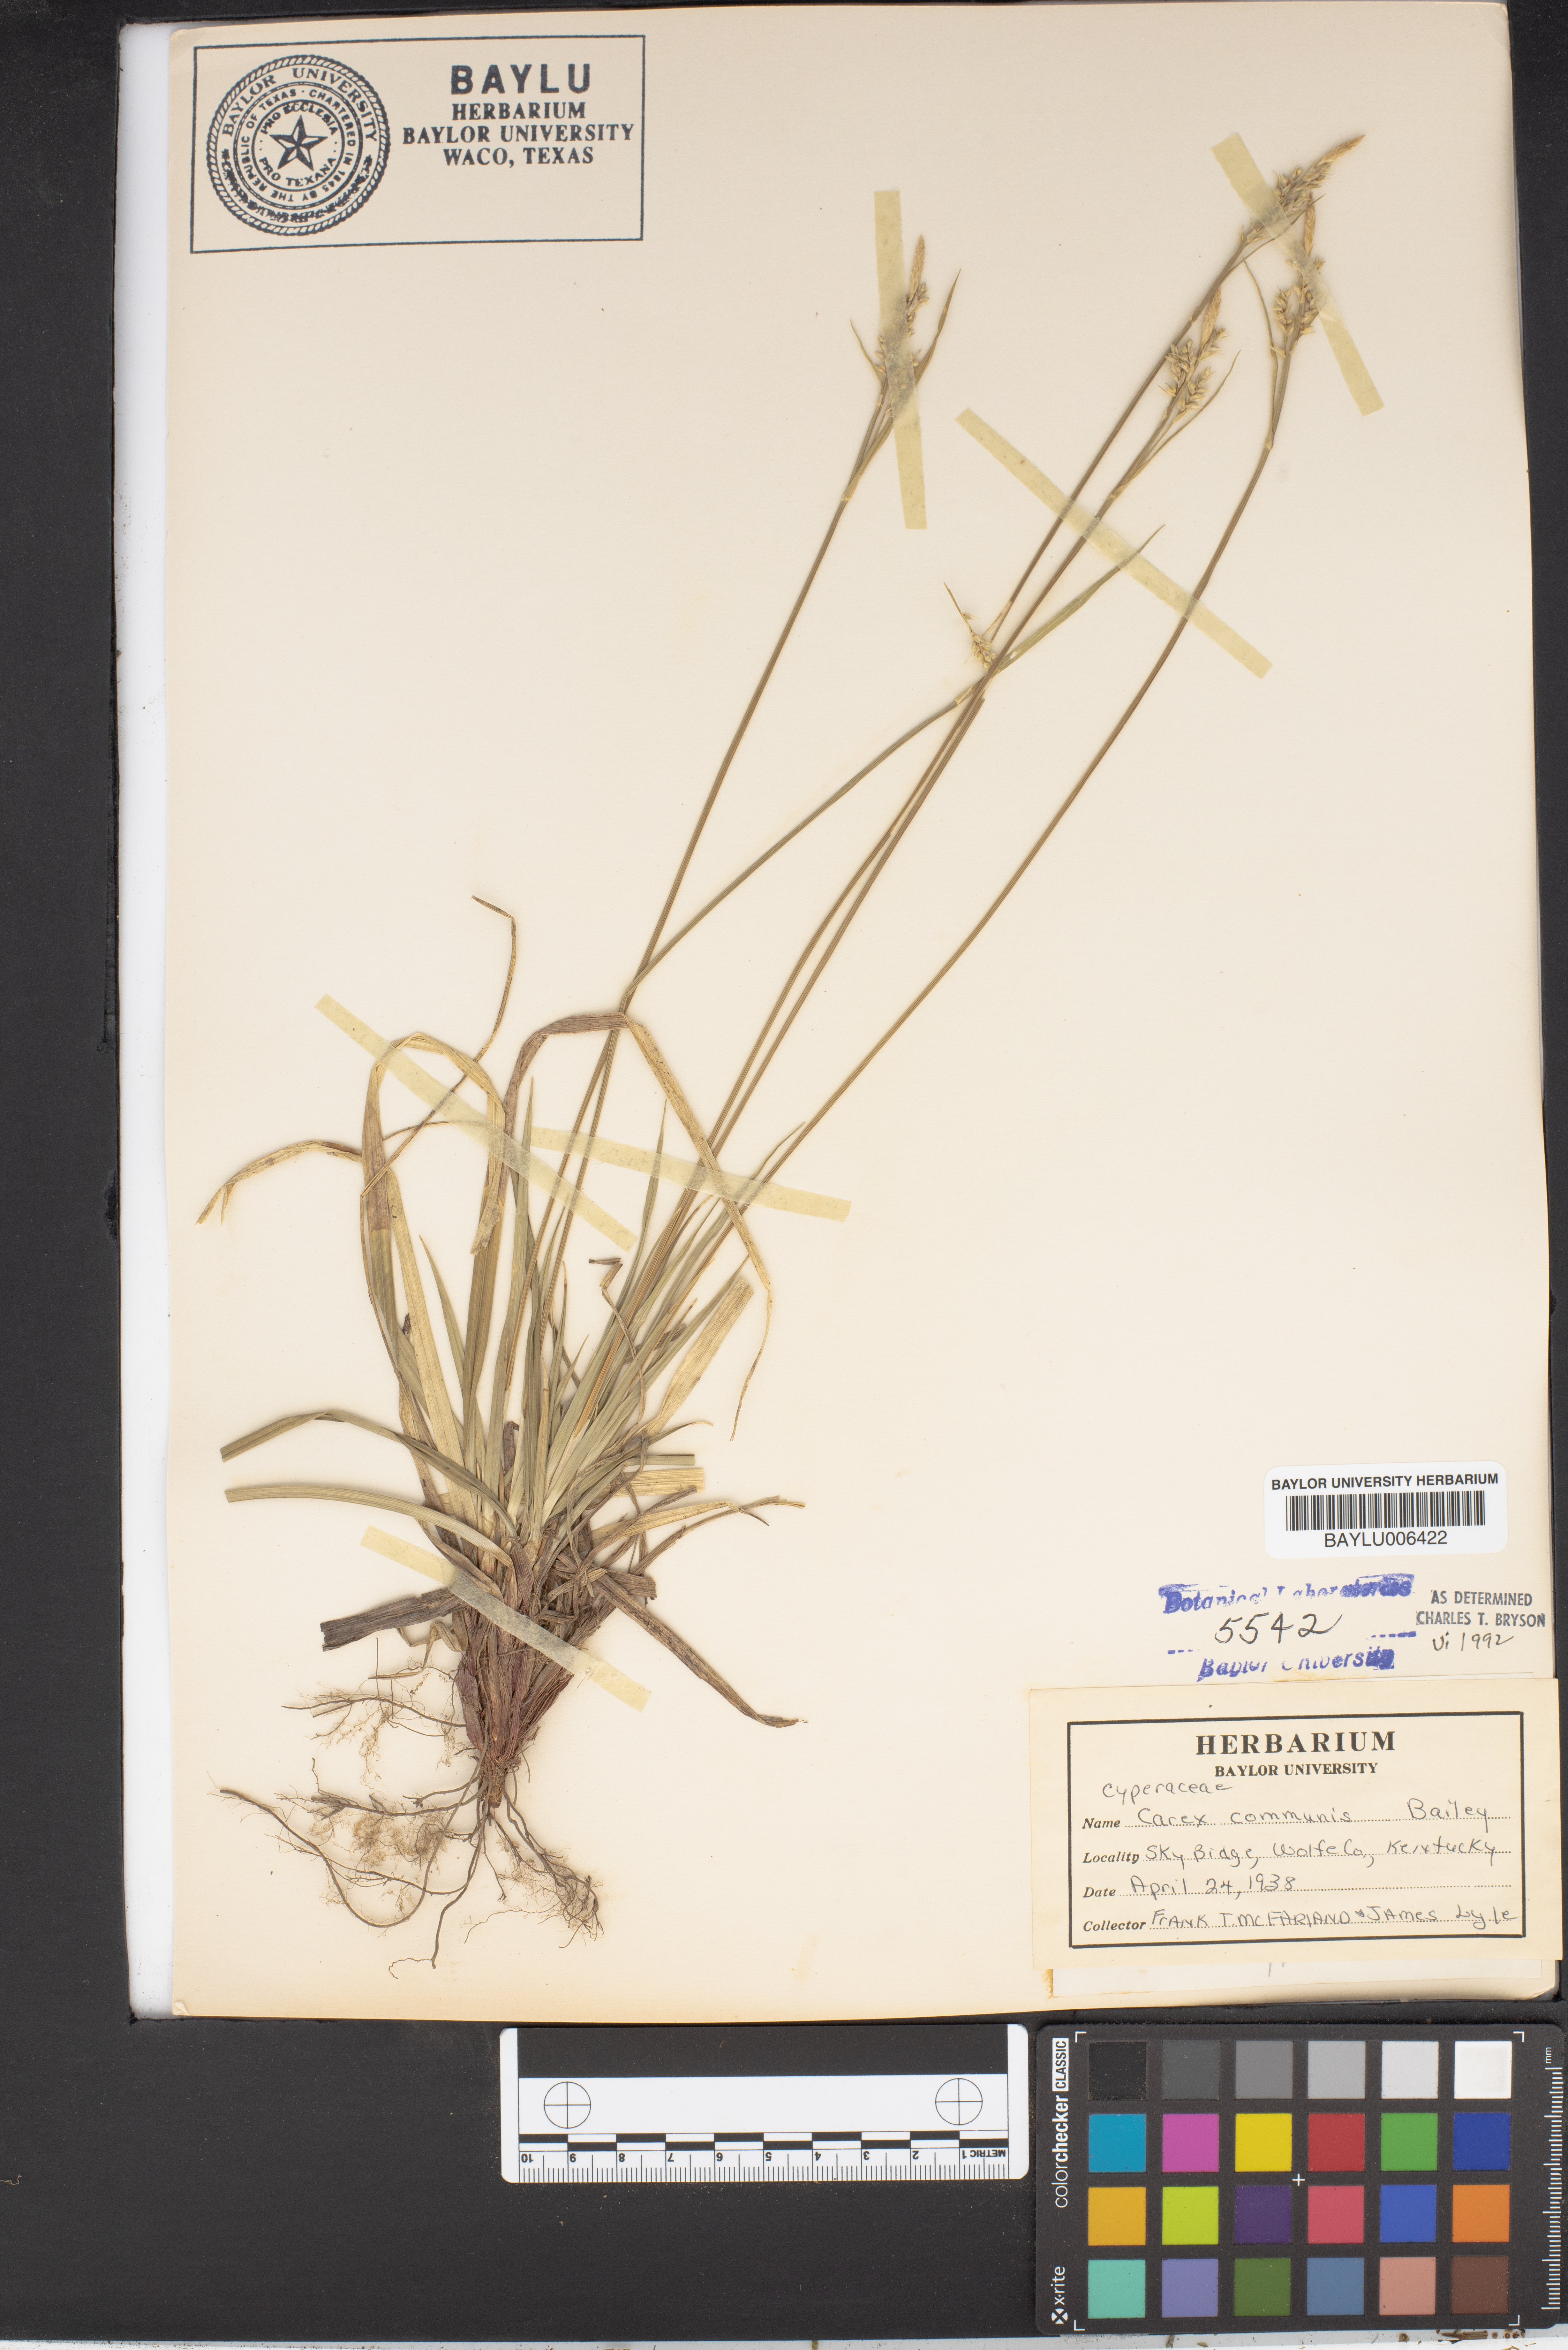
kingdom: Plantae
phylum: Tracheophyta
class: Liliopsida
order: Poales
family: Cyperaceae
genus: Carex
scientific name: Carex communis
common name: Colonial oak sedge
